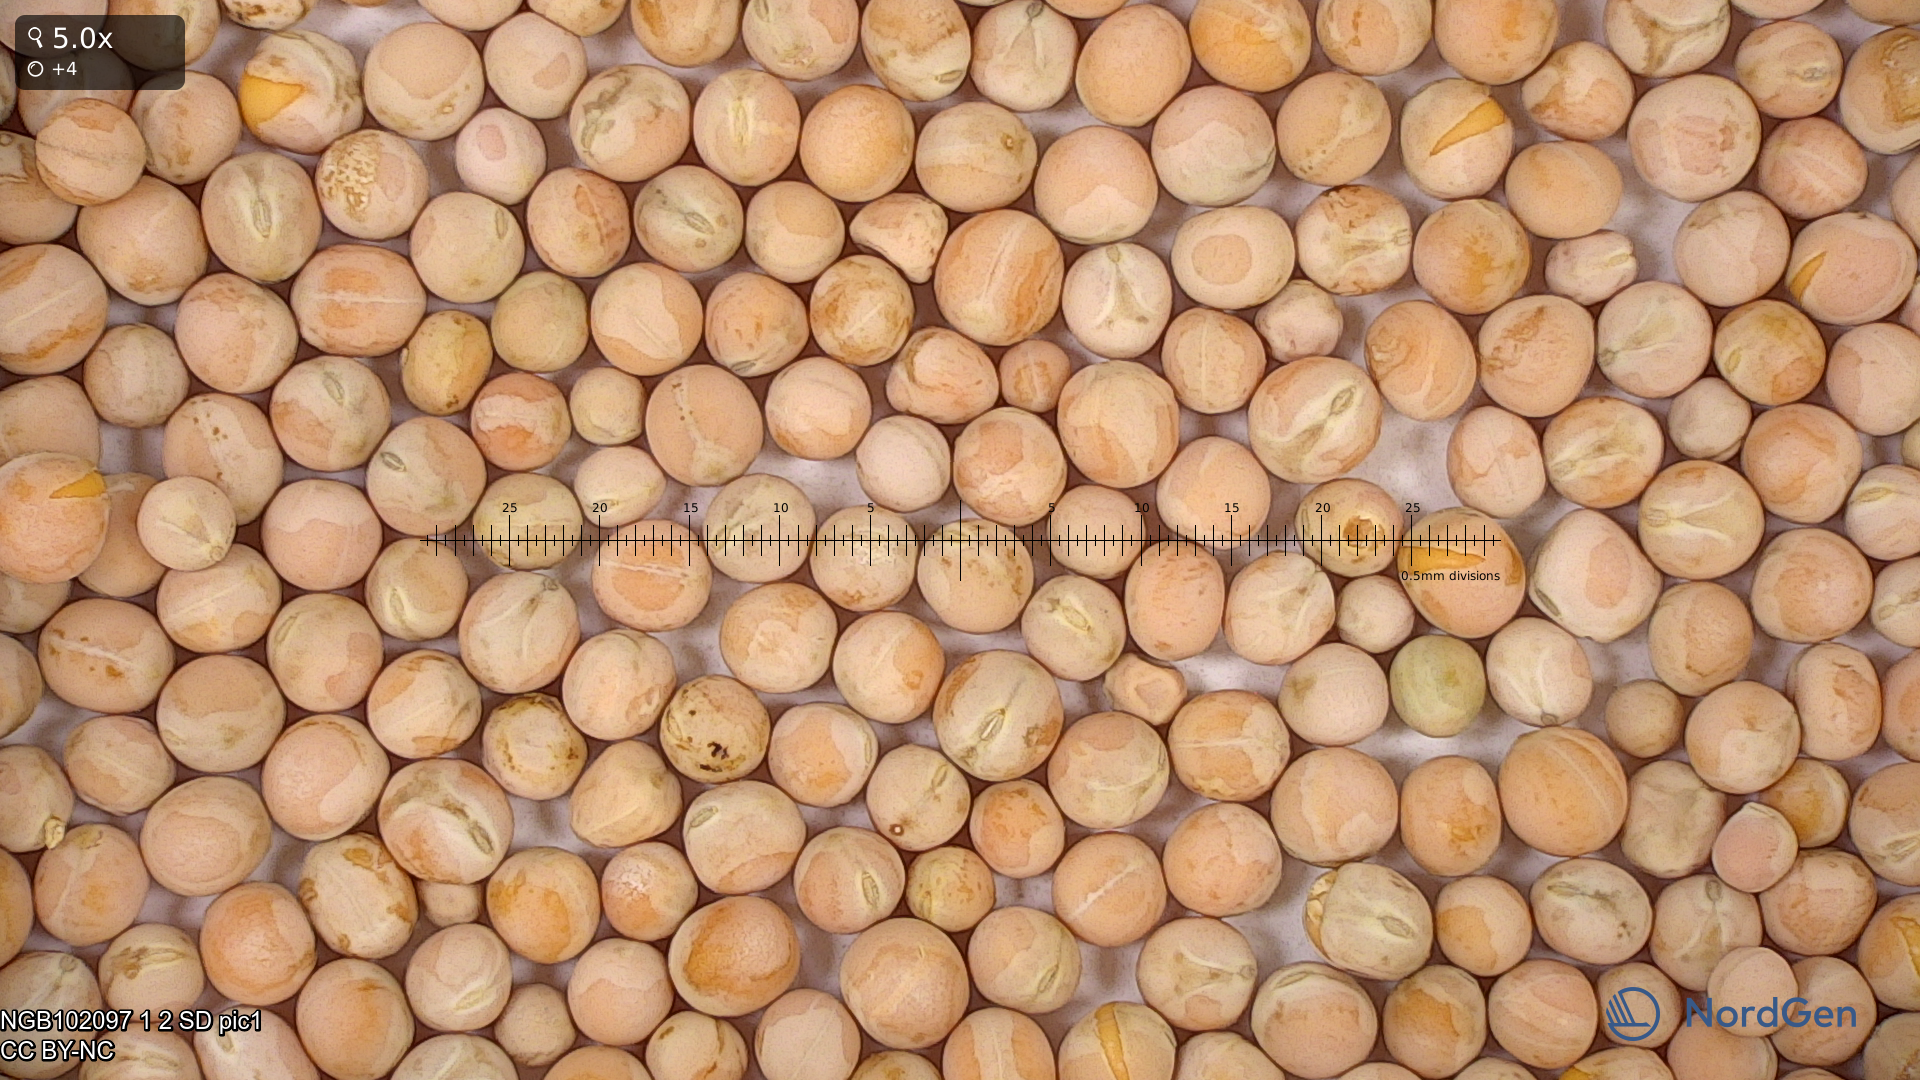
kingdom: Plantae
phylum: Tracheophyta
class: Magnoliopsida
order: Fabales
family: Fabaceae
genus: Lathyrus
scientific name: Lathyrus oleraceus
